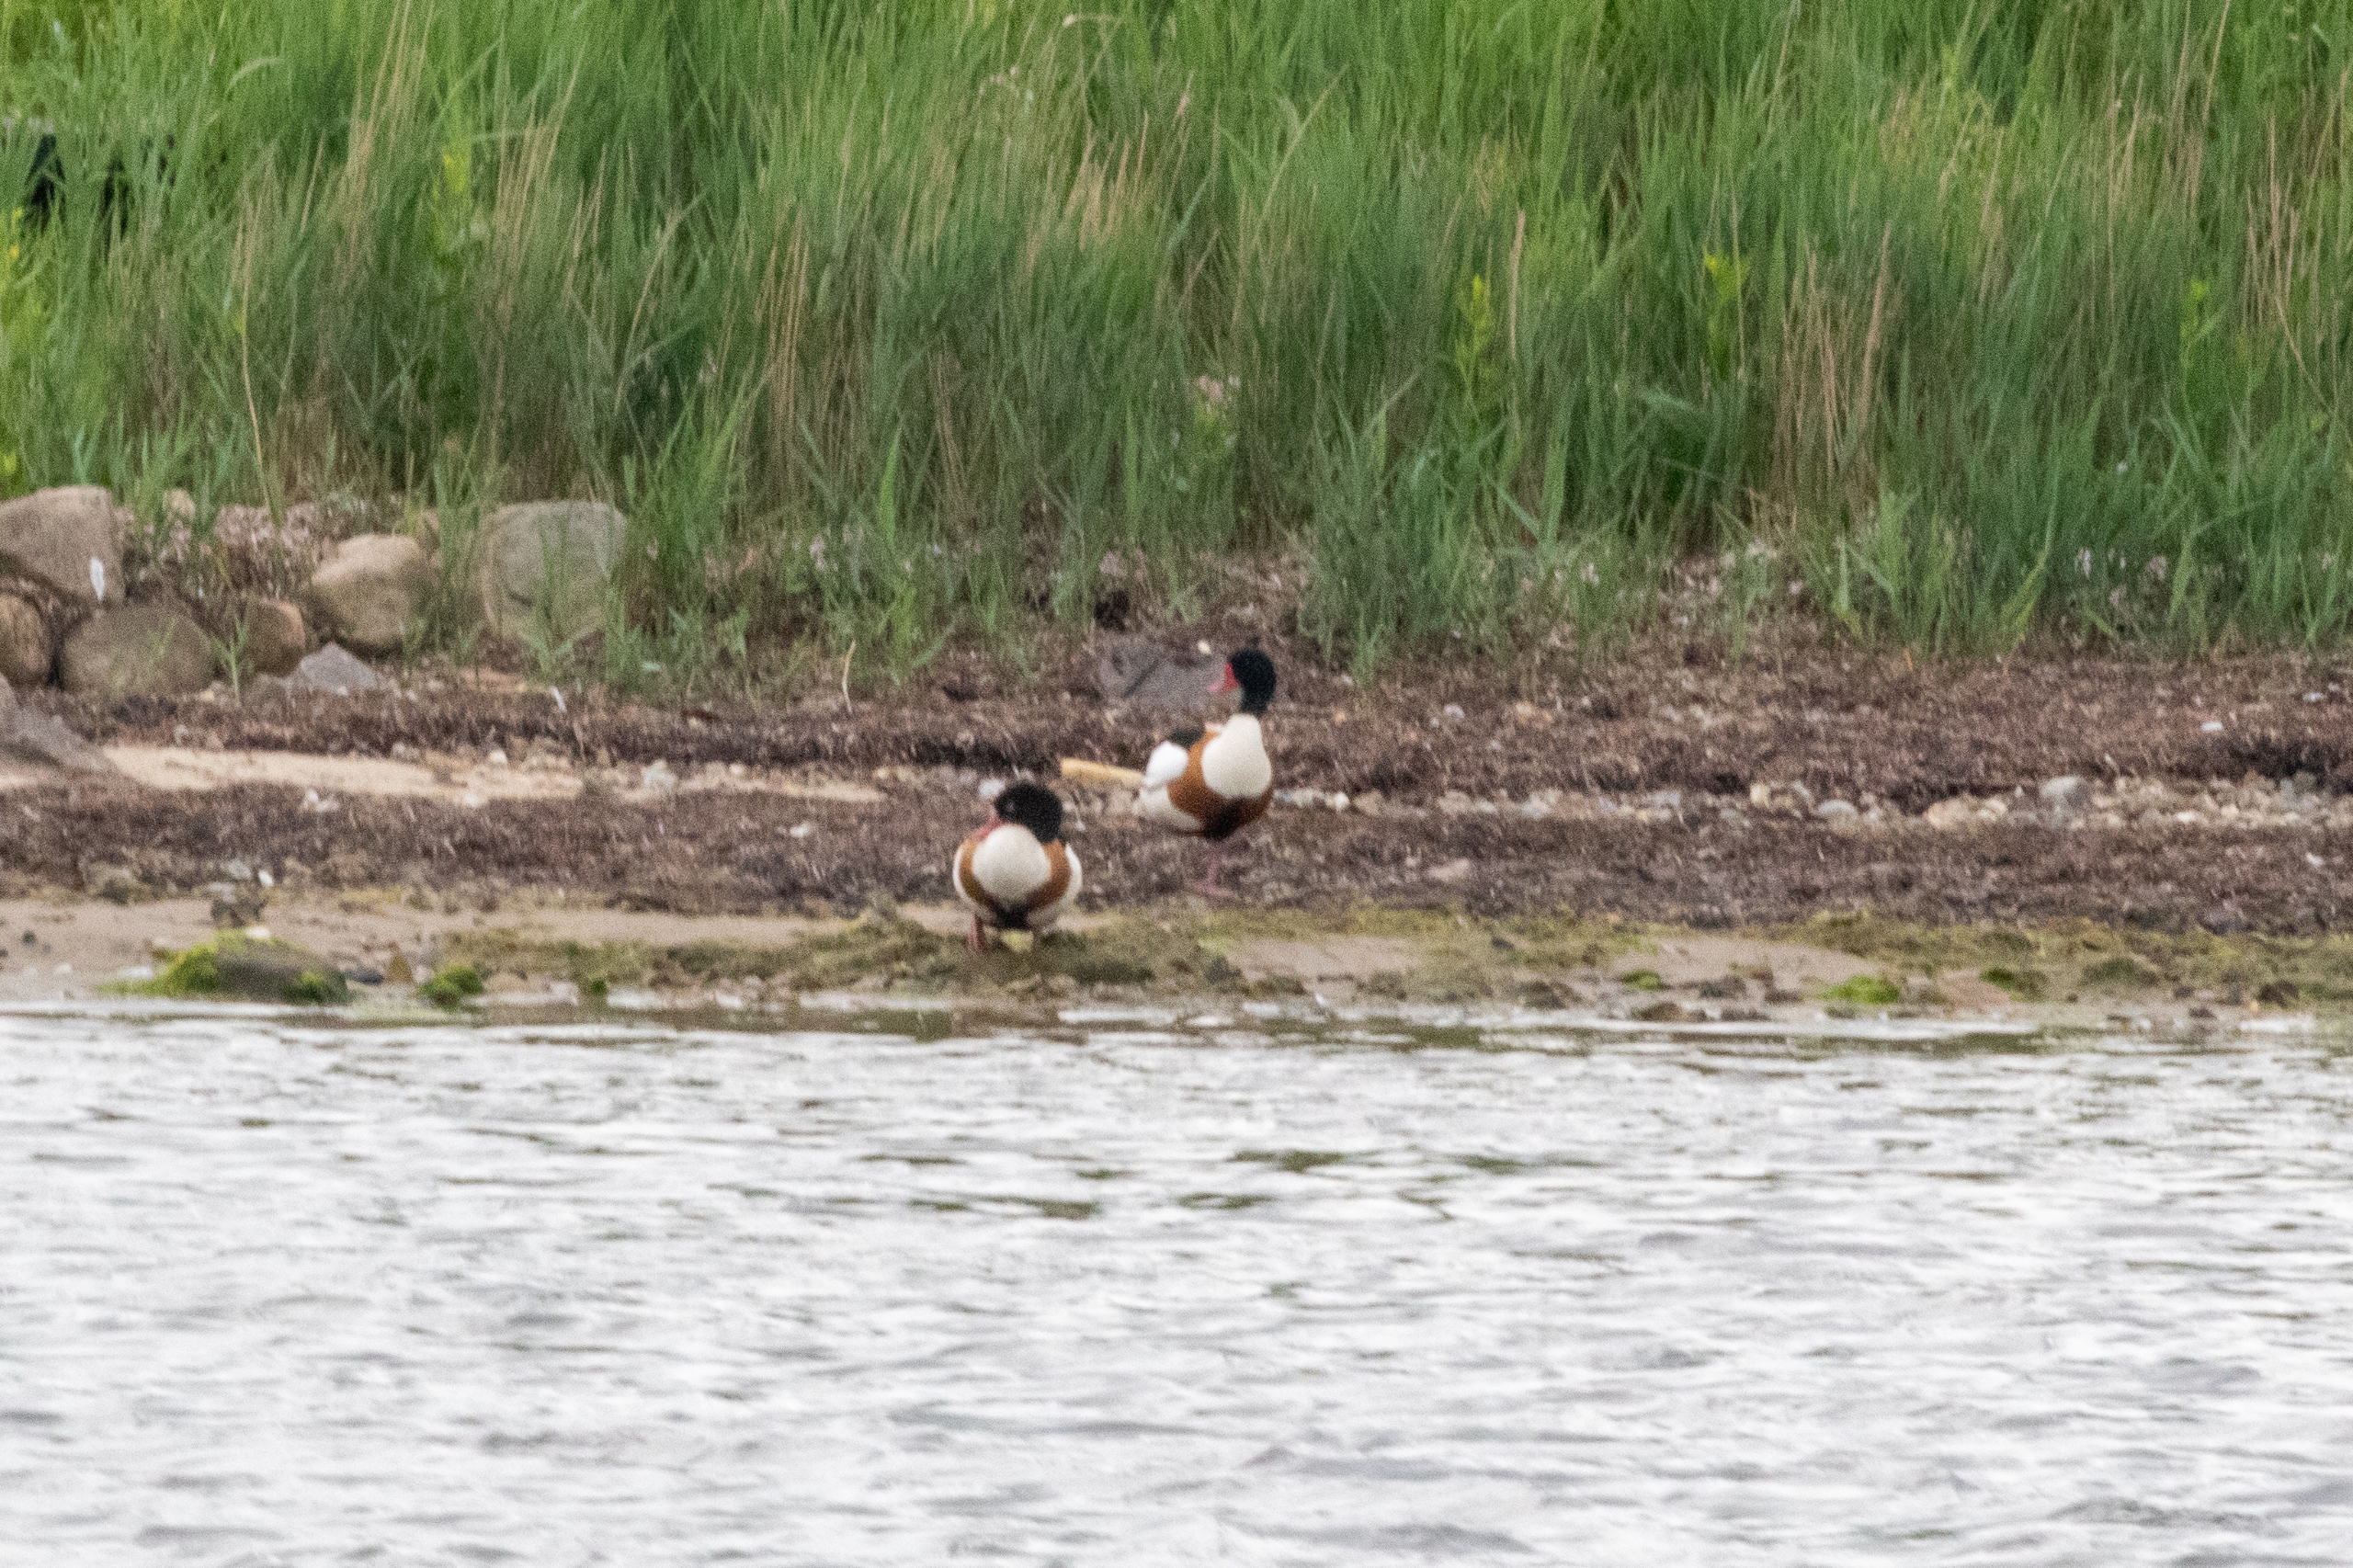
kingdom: Animalia
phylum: Chordata
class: Aves
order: Anseriformes
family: Anatidae
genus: Tadorna
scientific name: Tadorna tadorna
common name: Gravand
